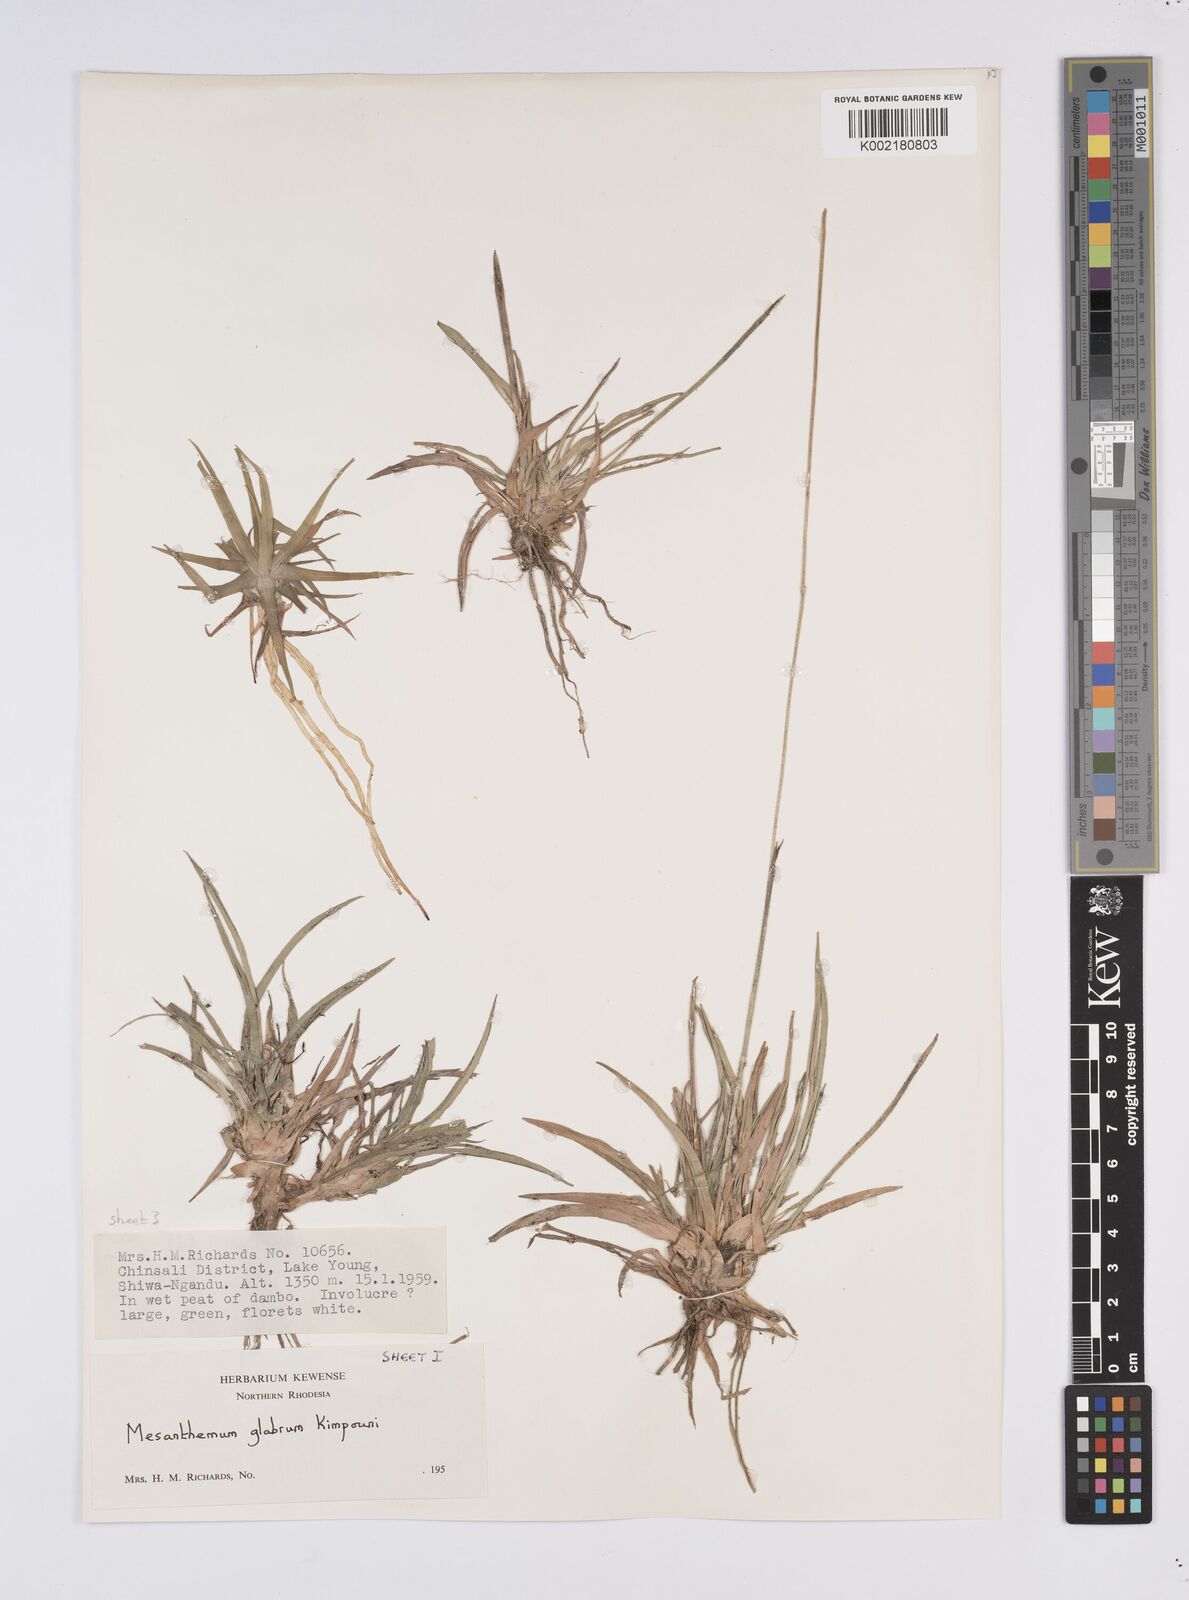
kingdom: Plantae
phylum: Tracheophyta
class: Liliopsida
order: Poales
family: Eriocaulaceae
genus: Mesanthemum
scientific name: Mesanthemum glabrum
